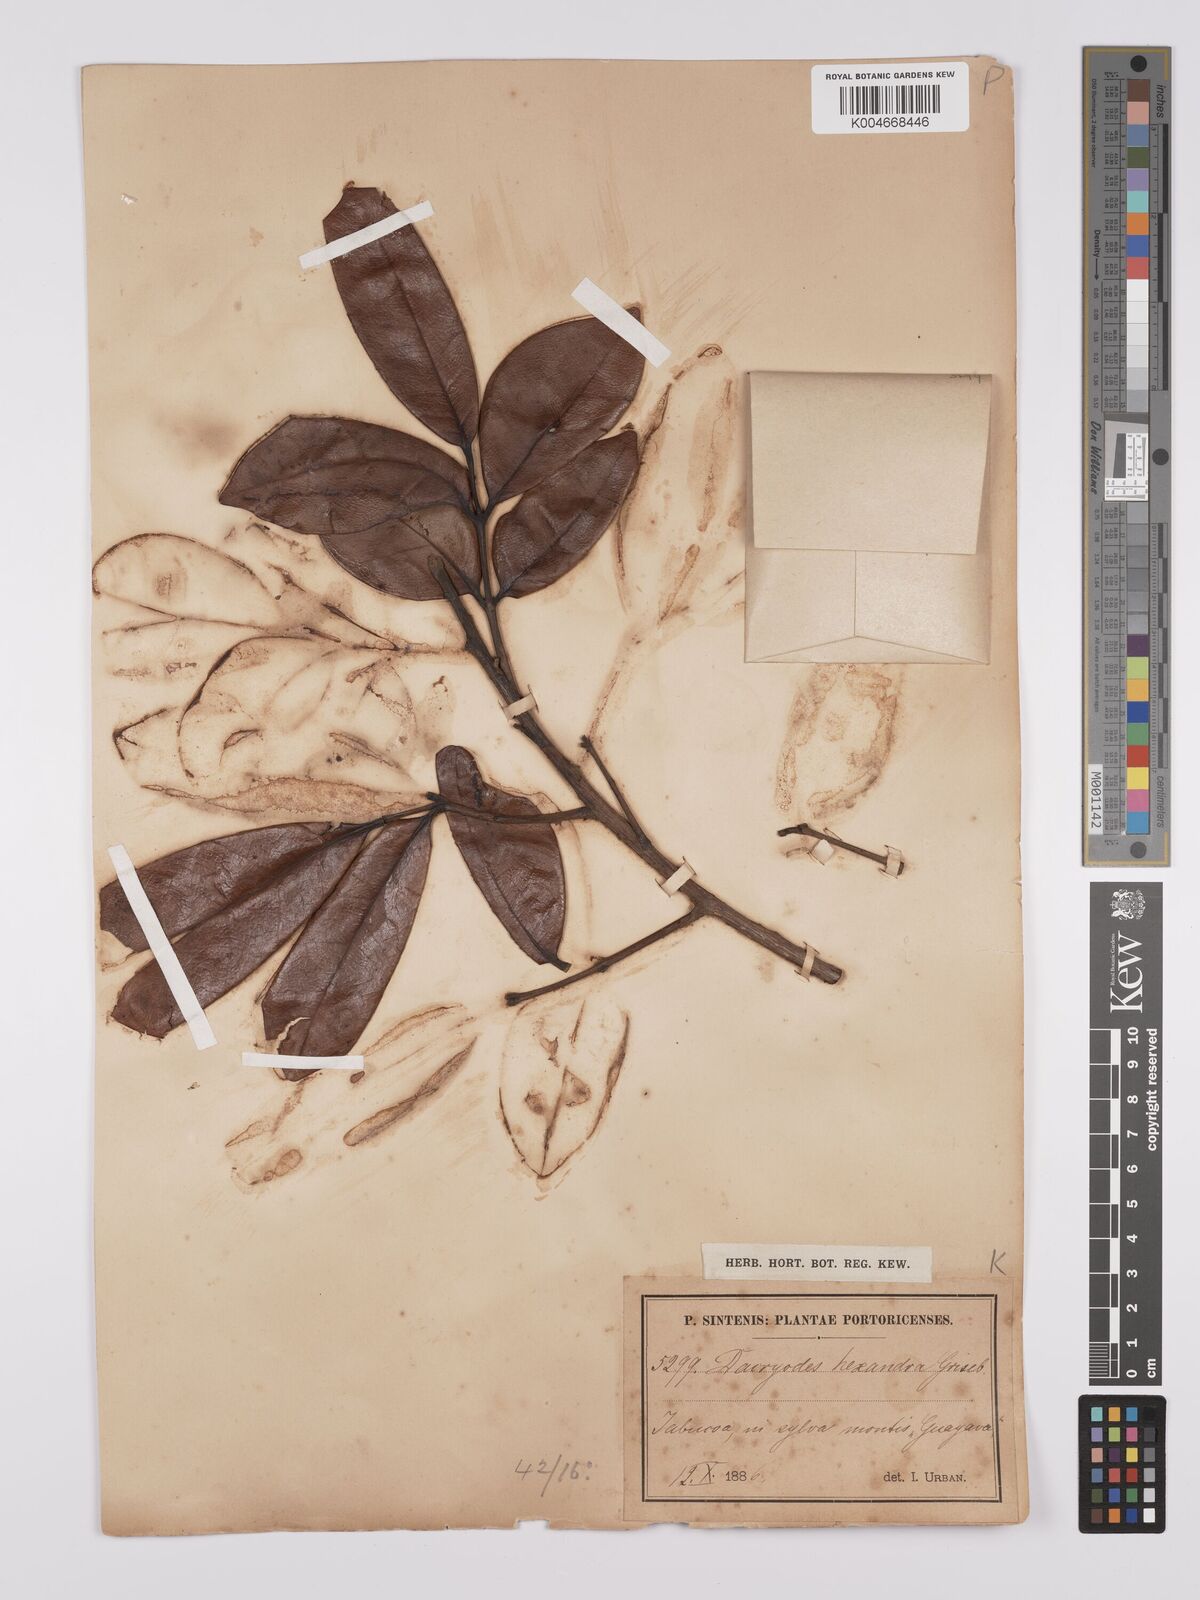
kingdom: Plantae
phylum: Tracheophyta
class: Magnoliopsida
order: Sapindales
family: Burseraceae
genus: Dacryodes
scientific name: Dacryodes excelsa
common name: Candlewood
